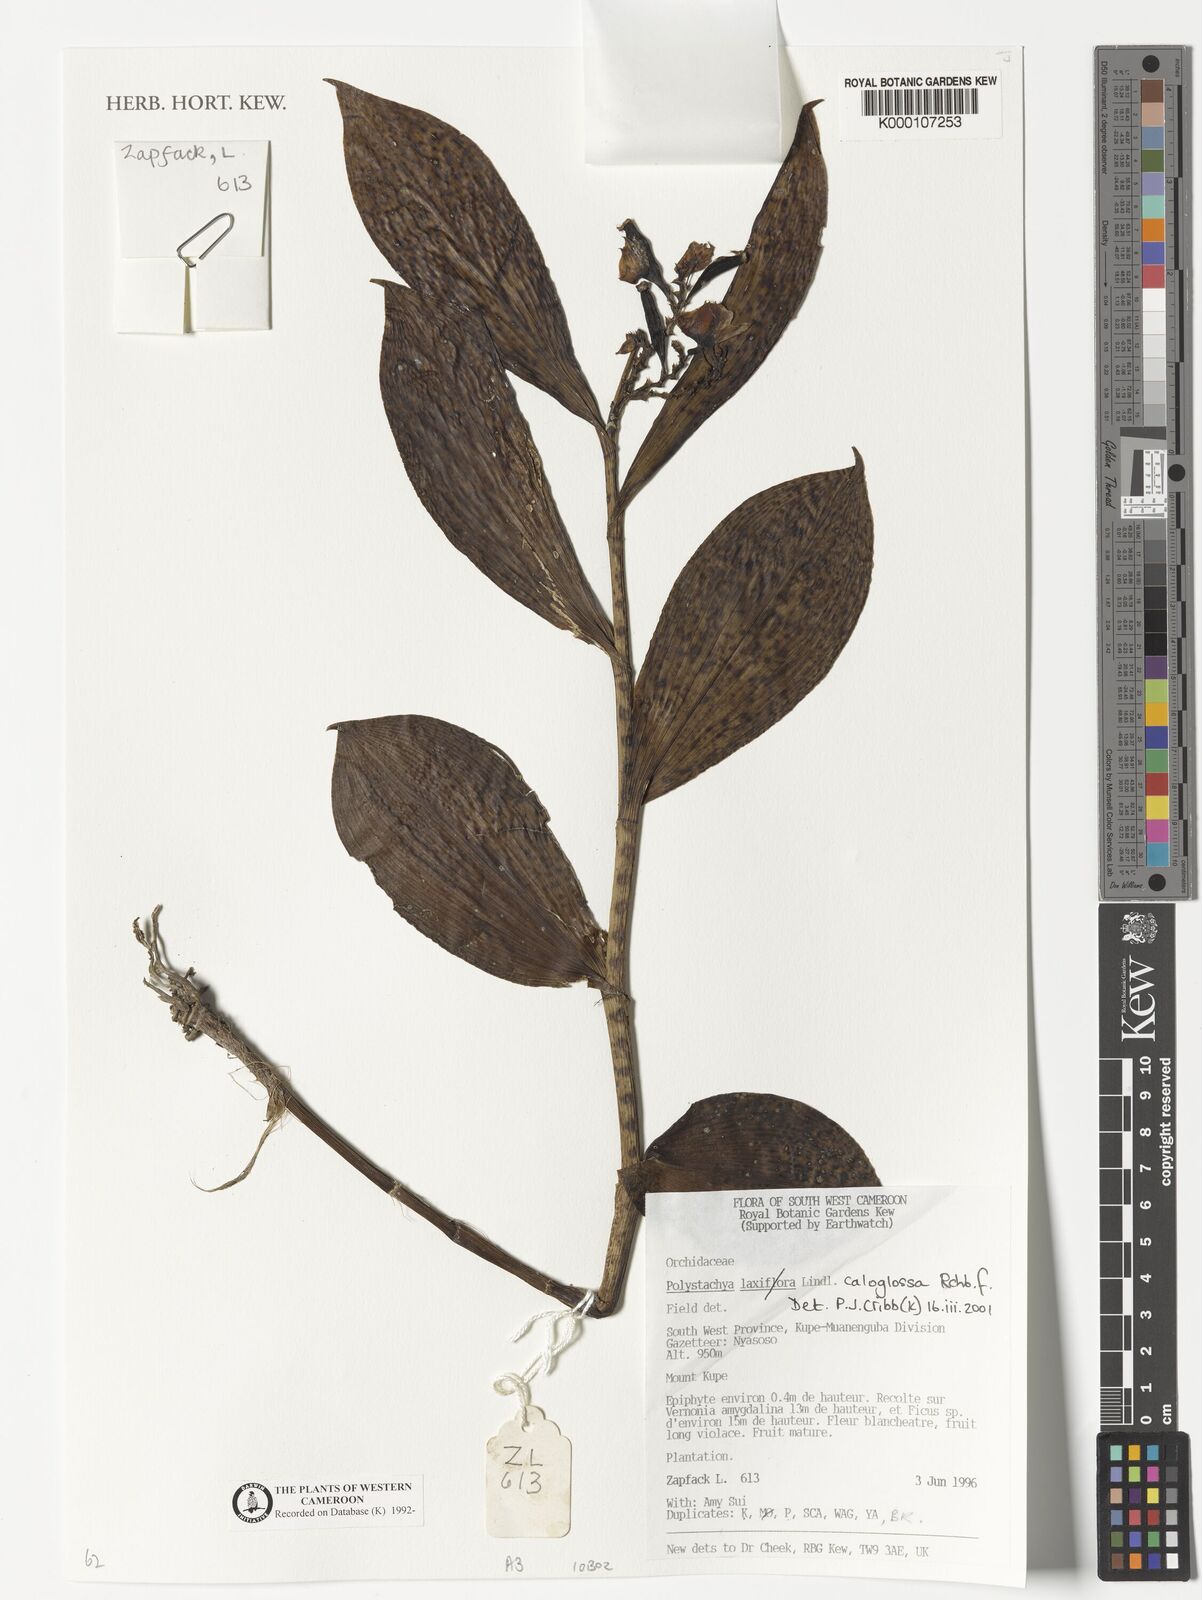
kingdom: Plantae
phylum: Tracheophyta
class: Liliopsida
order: Asparagales
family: Orchidaceae
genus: Polystachya
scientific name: Polystachya caloglossa
